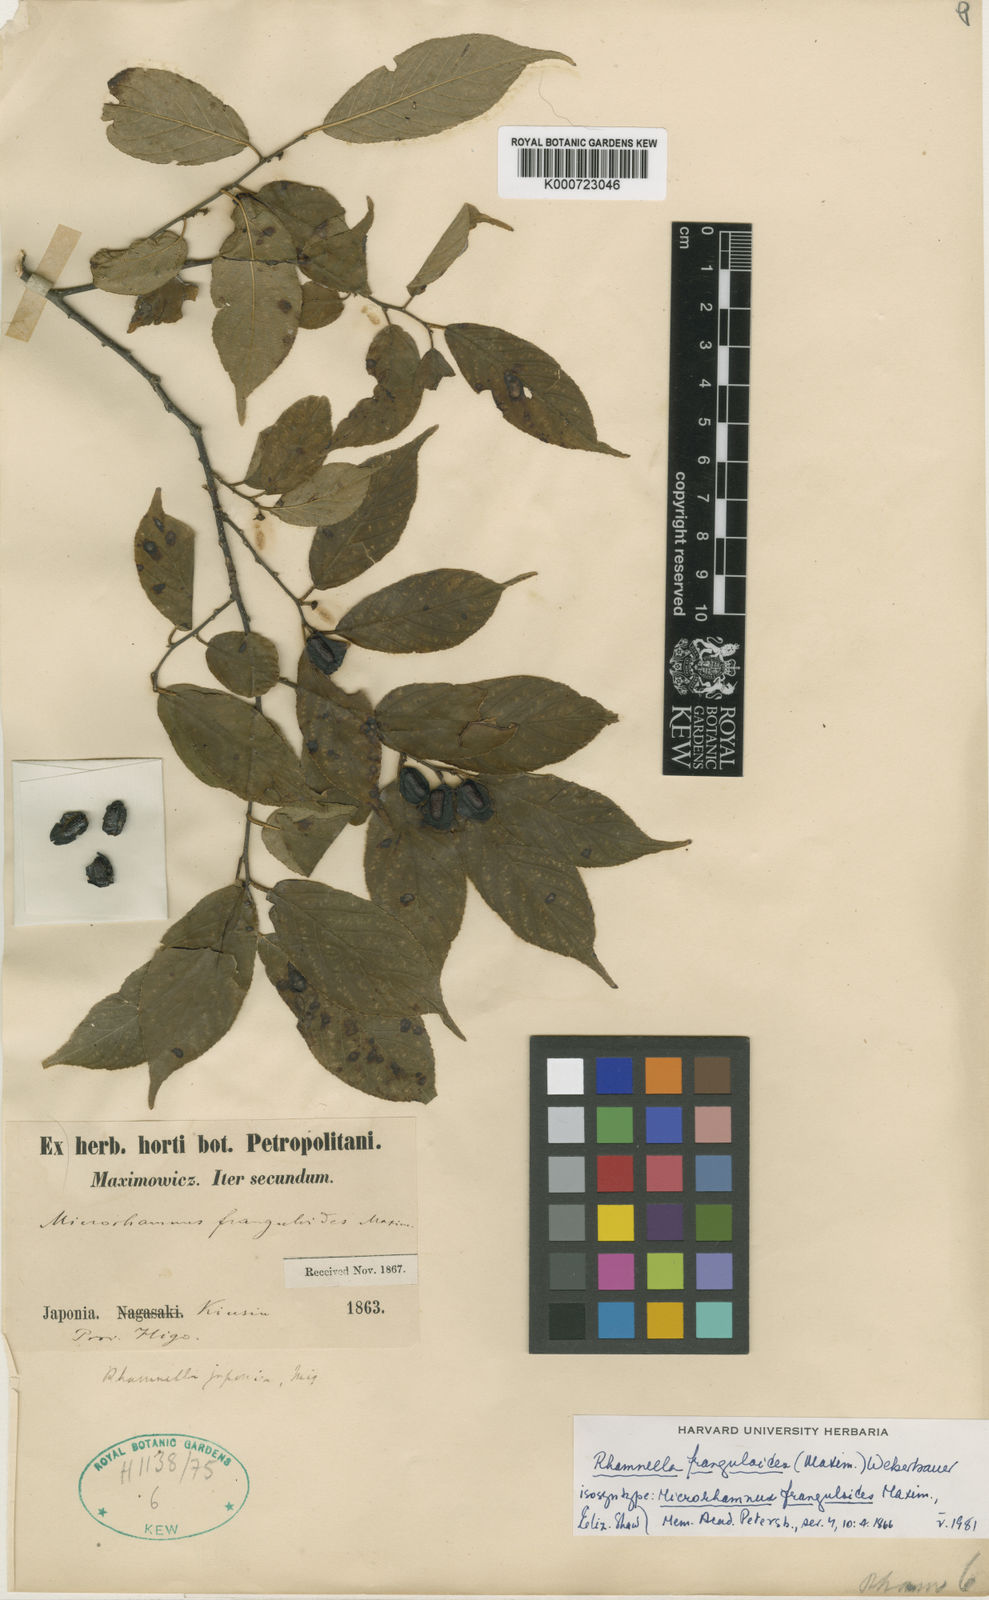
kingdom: Plantae
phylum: Tracheophyta
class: Magnoliopsida
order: Rosales
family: Rhamnaceae
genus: Rhamnella
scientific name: Rhamnella franguloides
